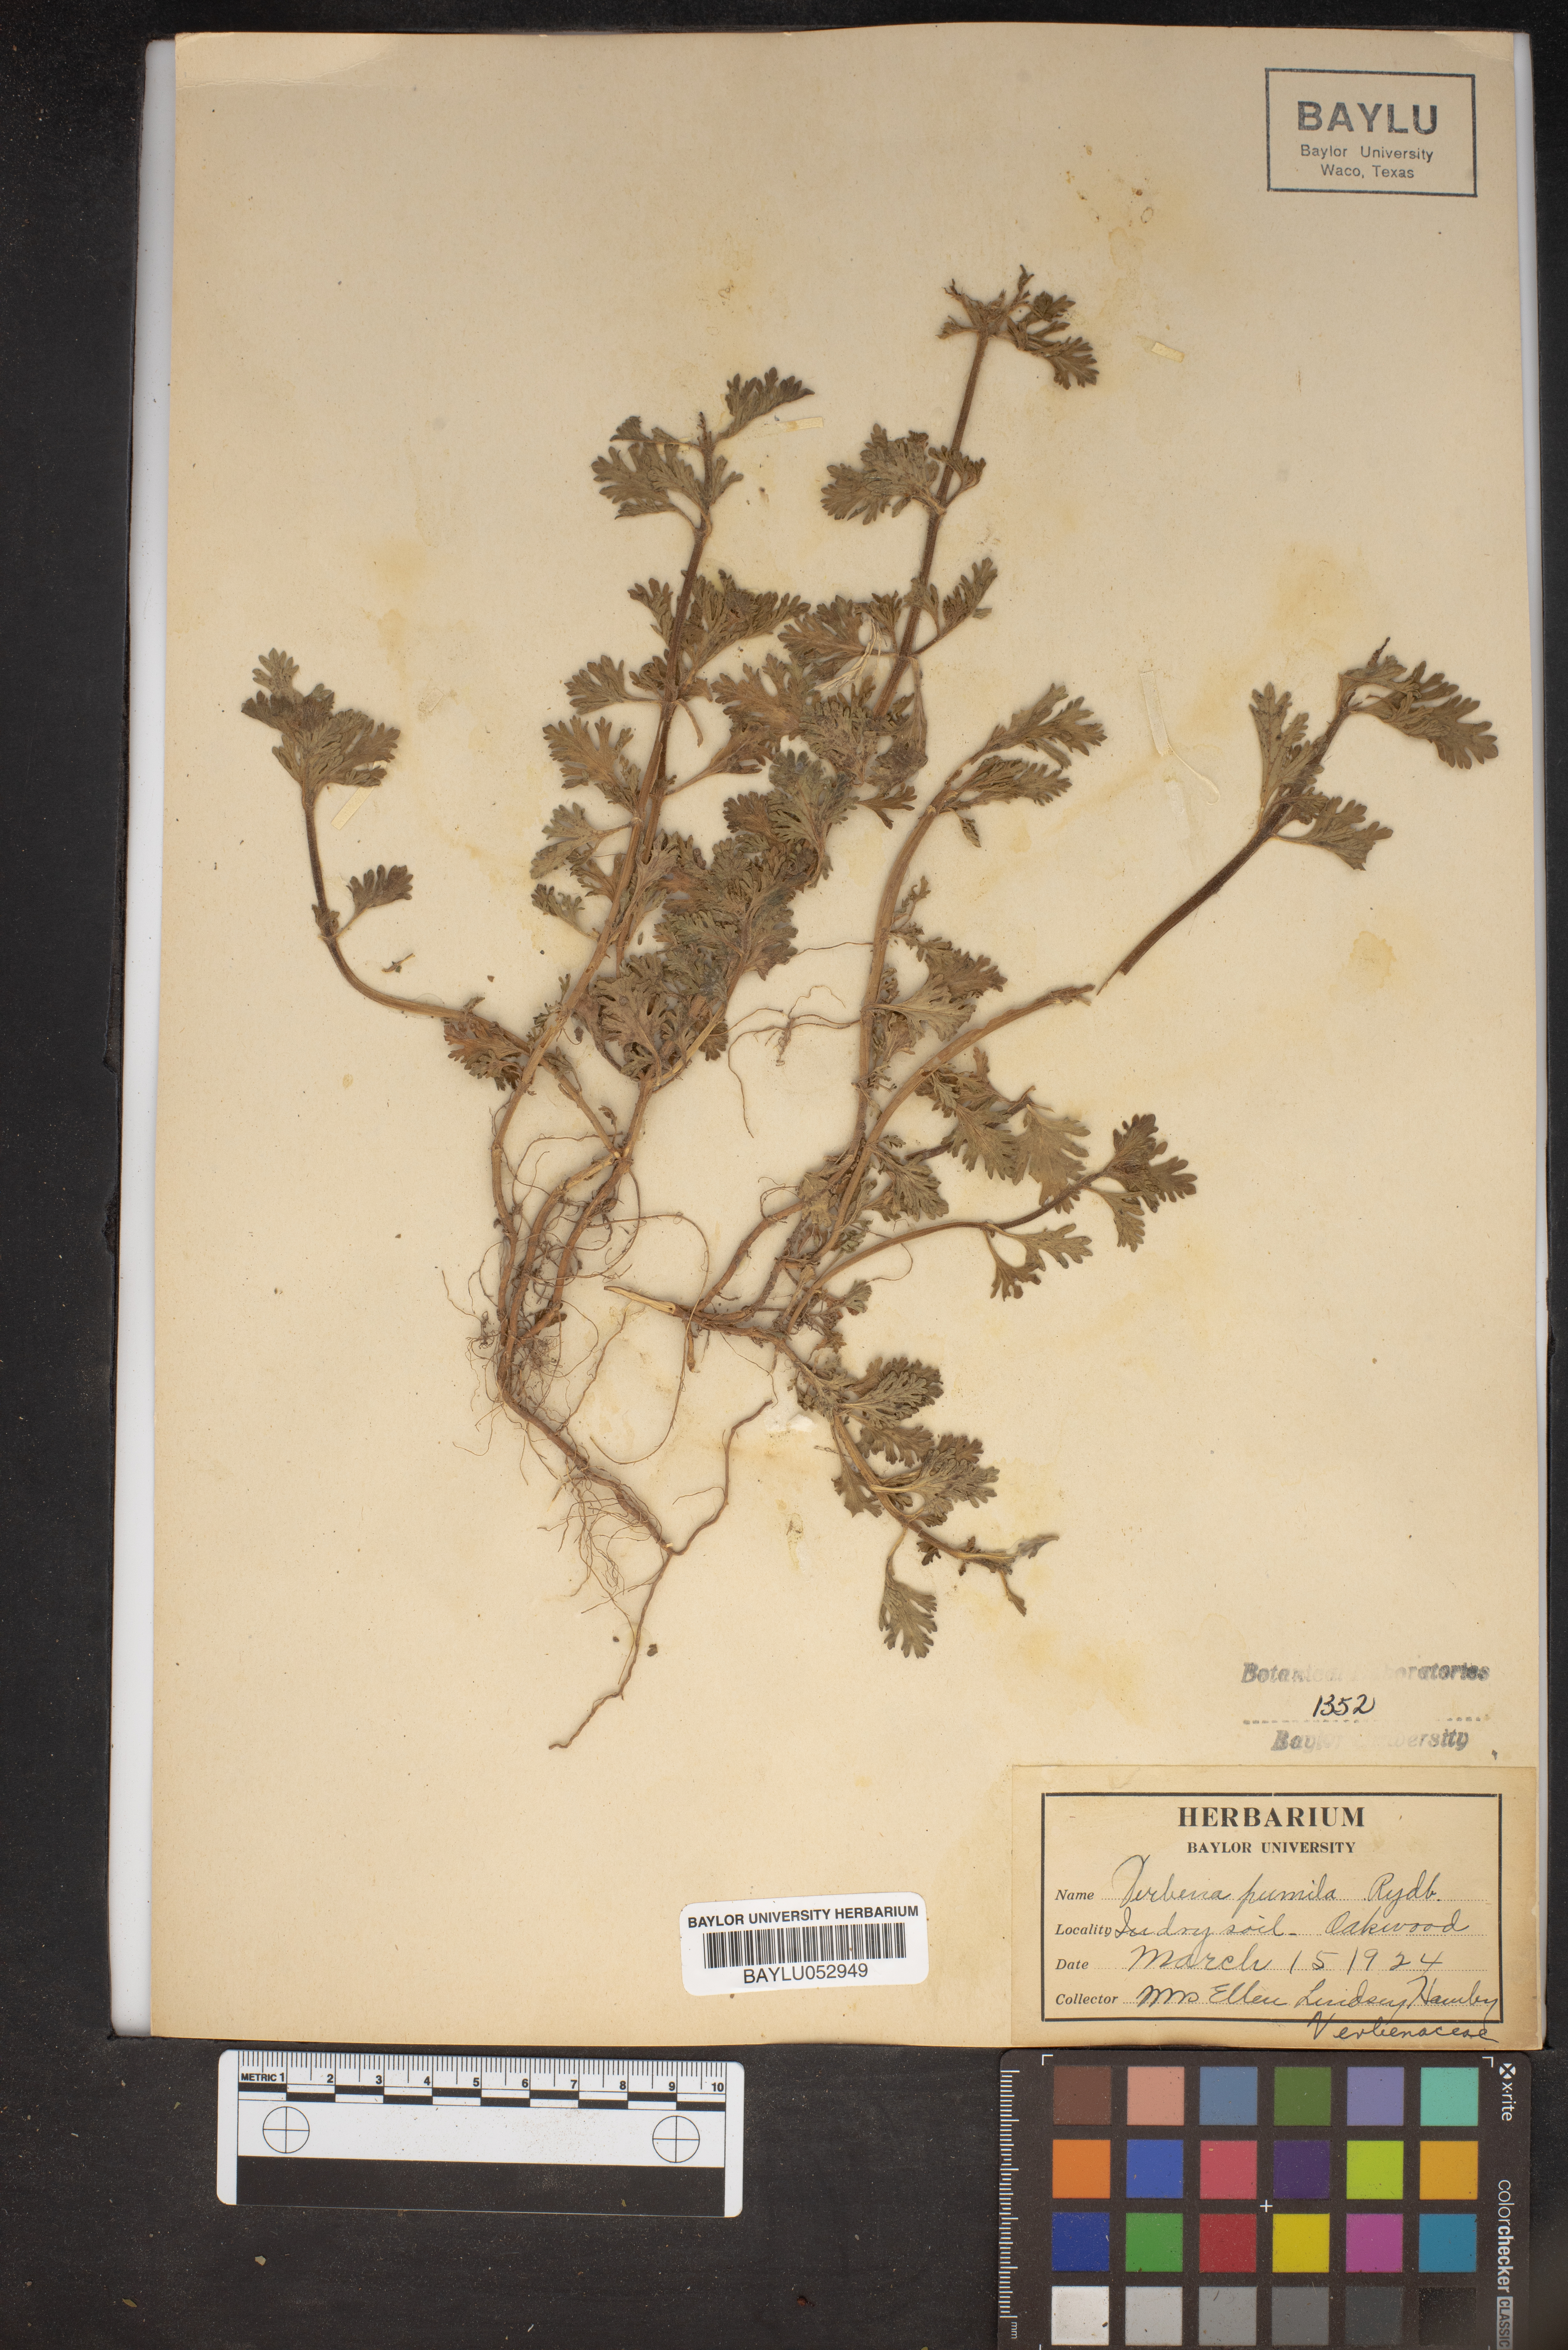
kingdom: Plantae
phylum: Tracheophyta
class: Magnoliopsida
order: Lamiales
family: Verbenaceae
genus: Verbena
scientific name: Verbena pumila
